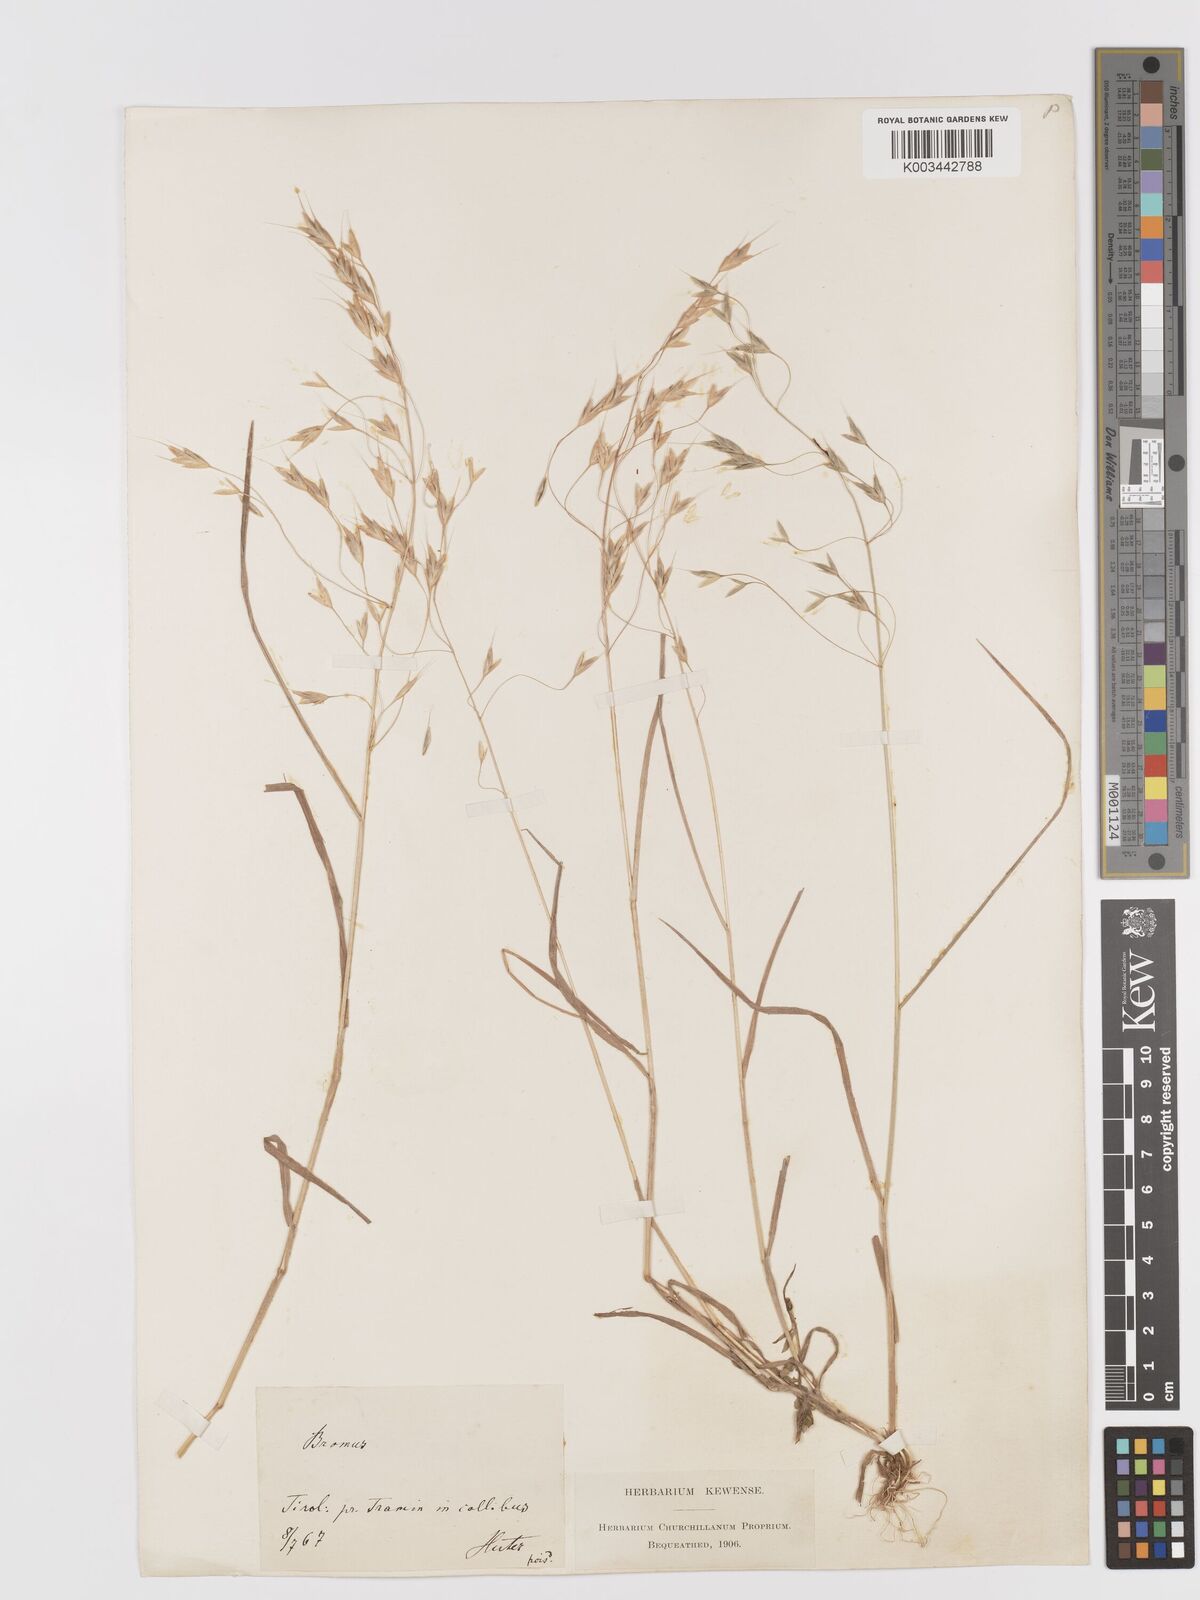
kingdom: Plantae
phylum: Tracheophyta
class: Liliopsida
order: Poales
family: Poaceae
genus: Bromus
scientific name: Bromus japonicus
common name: Japanese brome
